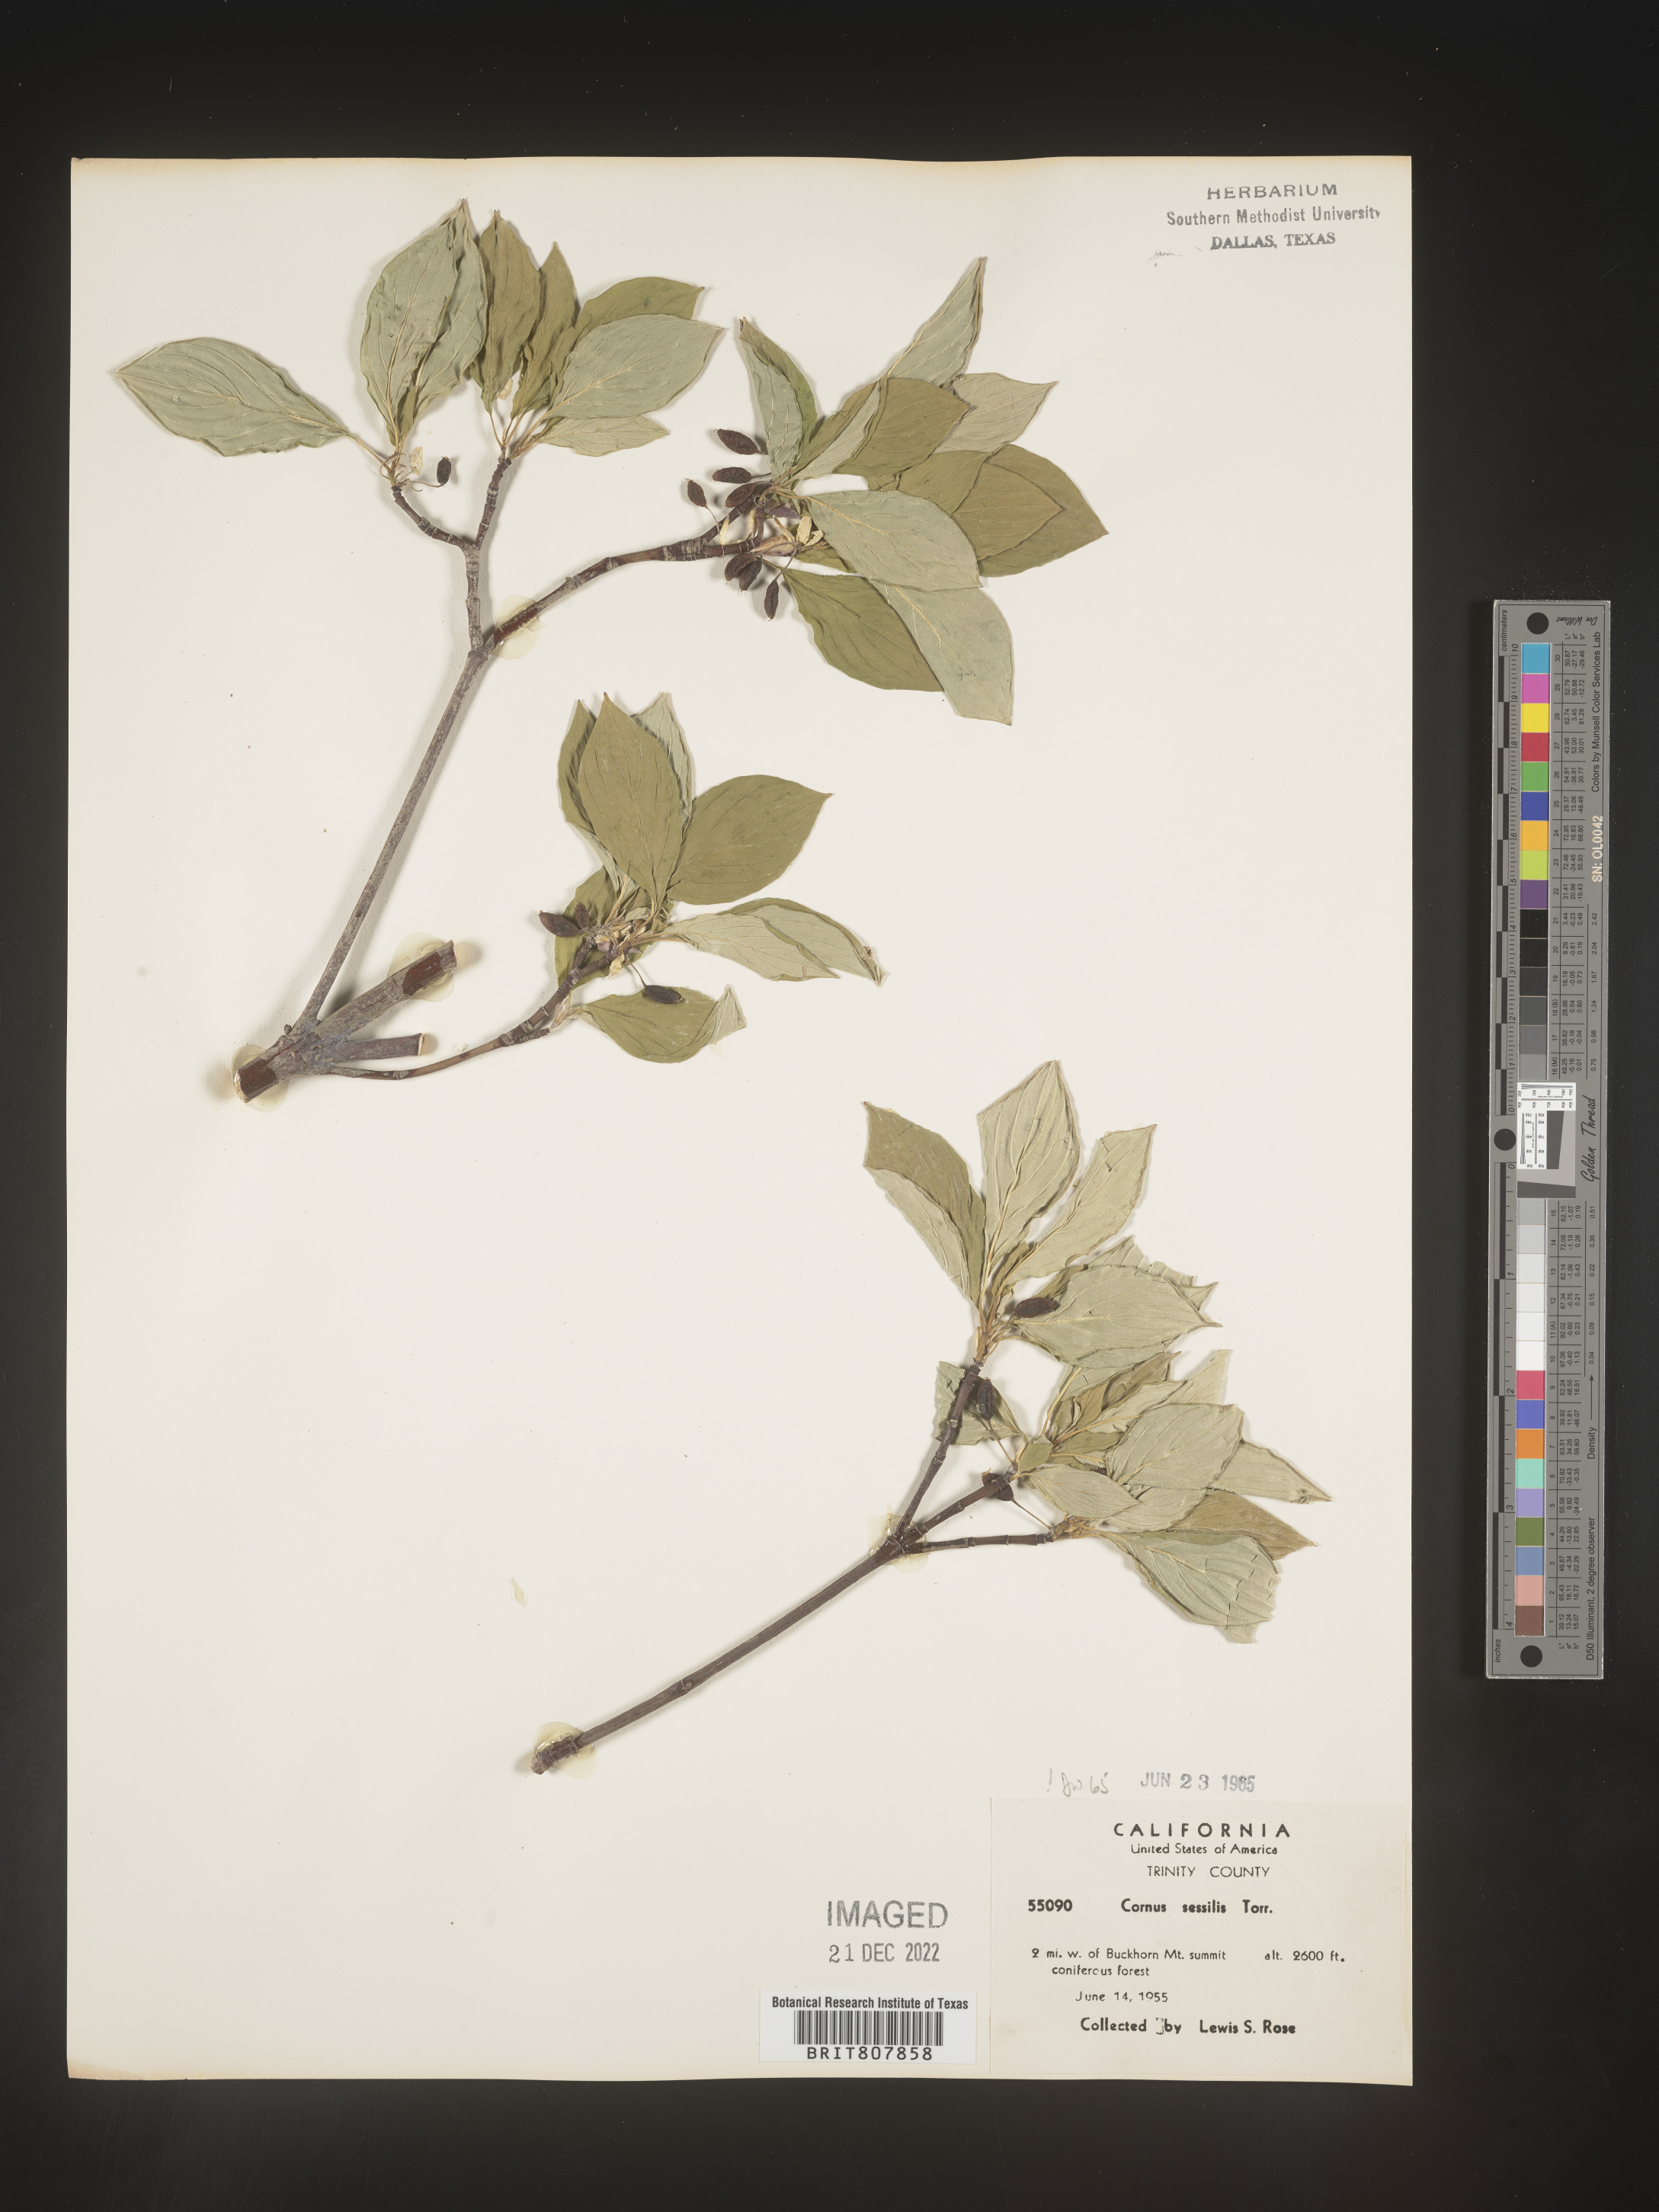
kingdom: Plantae
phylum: Tracheophyta
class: Magnoliopsida
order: Cornales
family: Cornaceae
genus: Cornus
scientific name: Cornus
